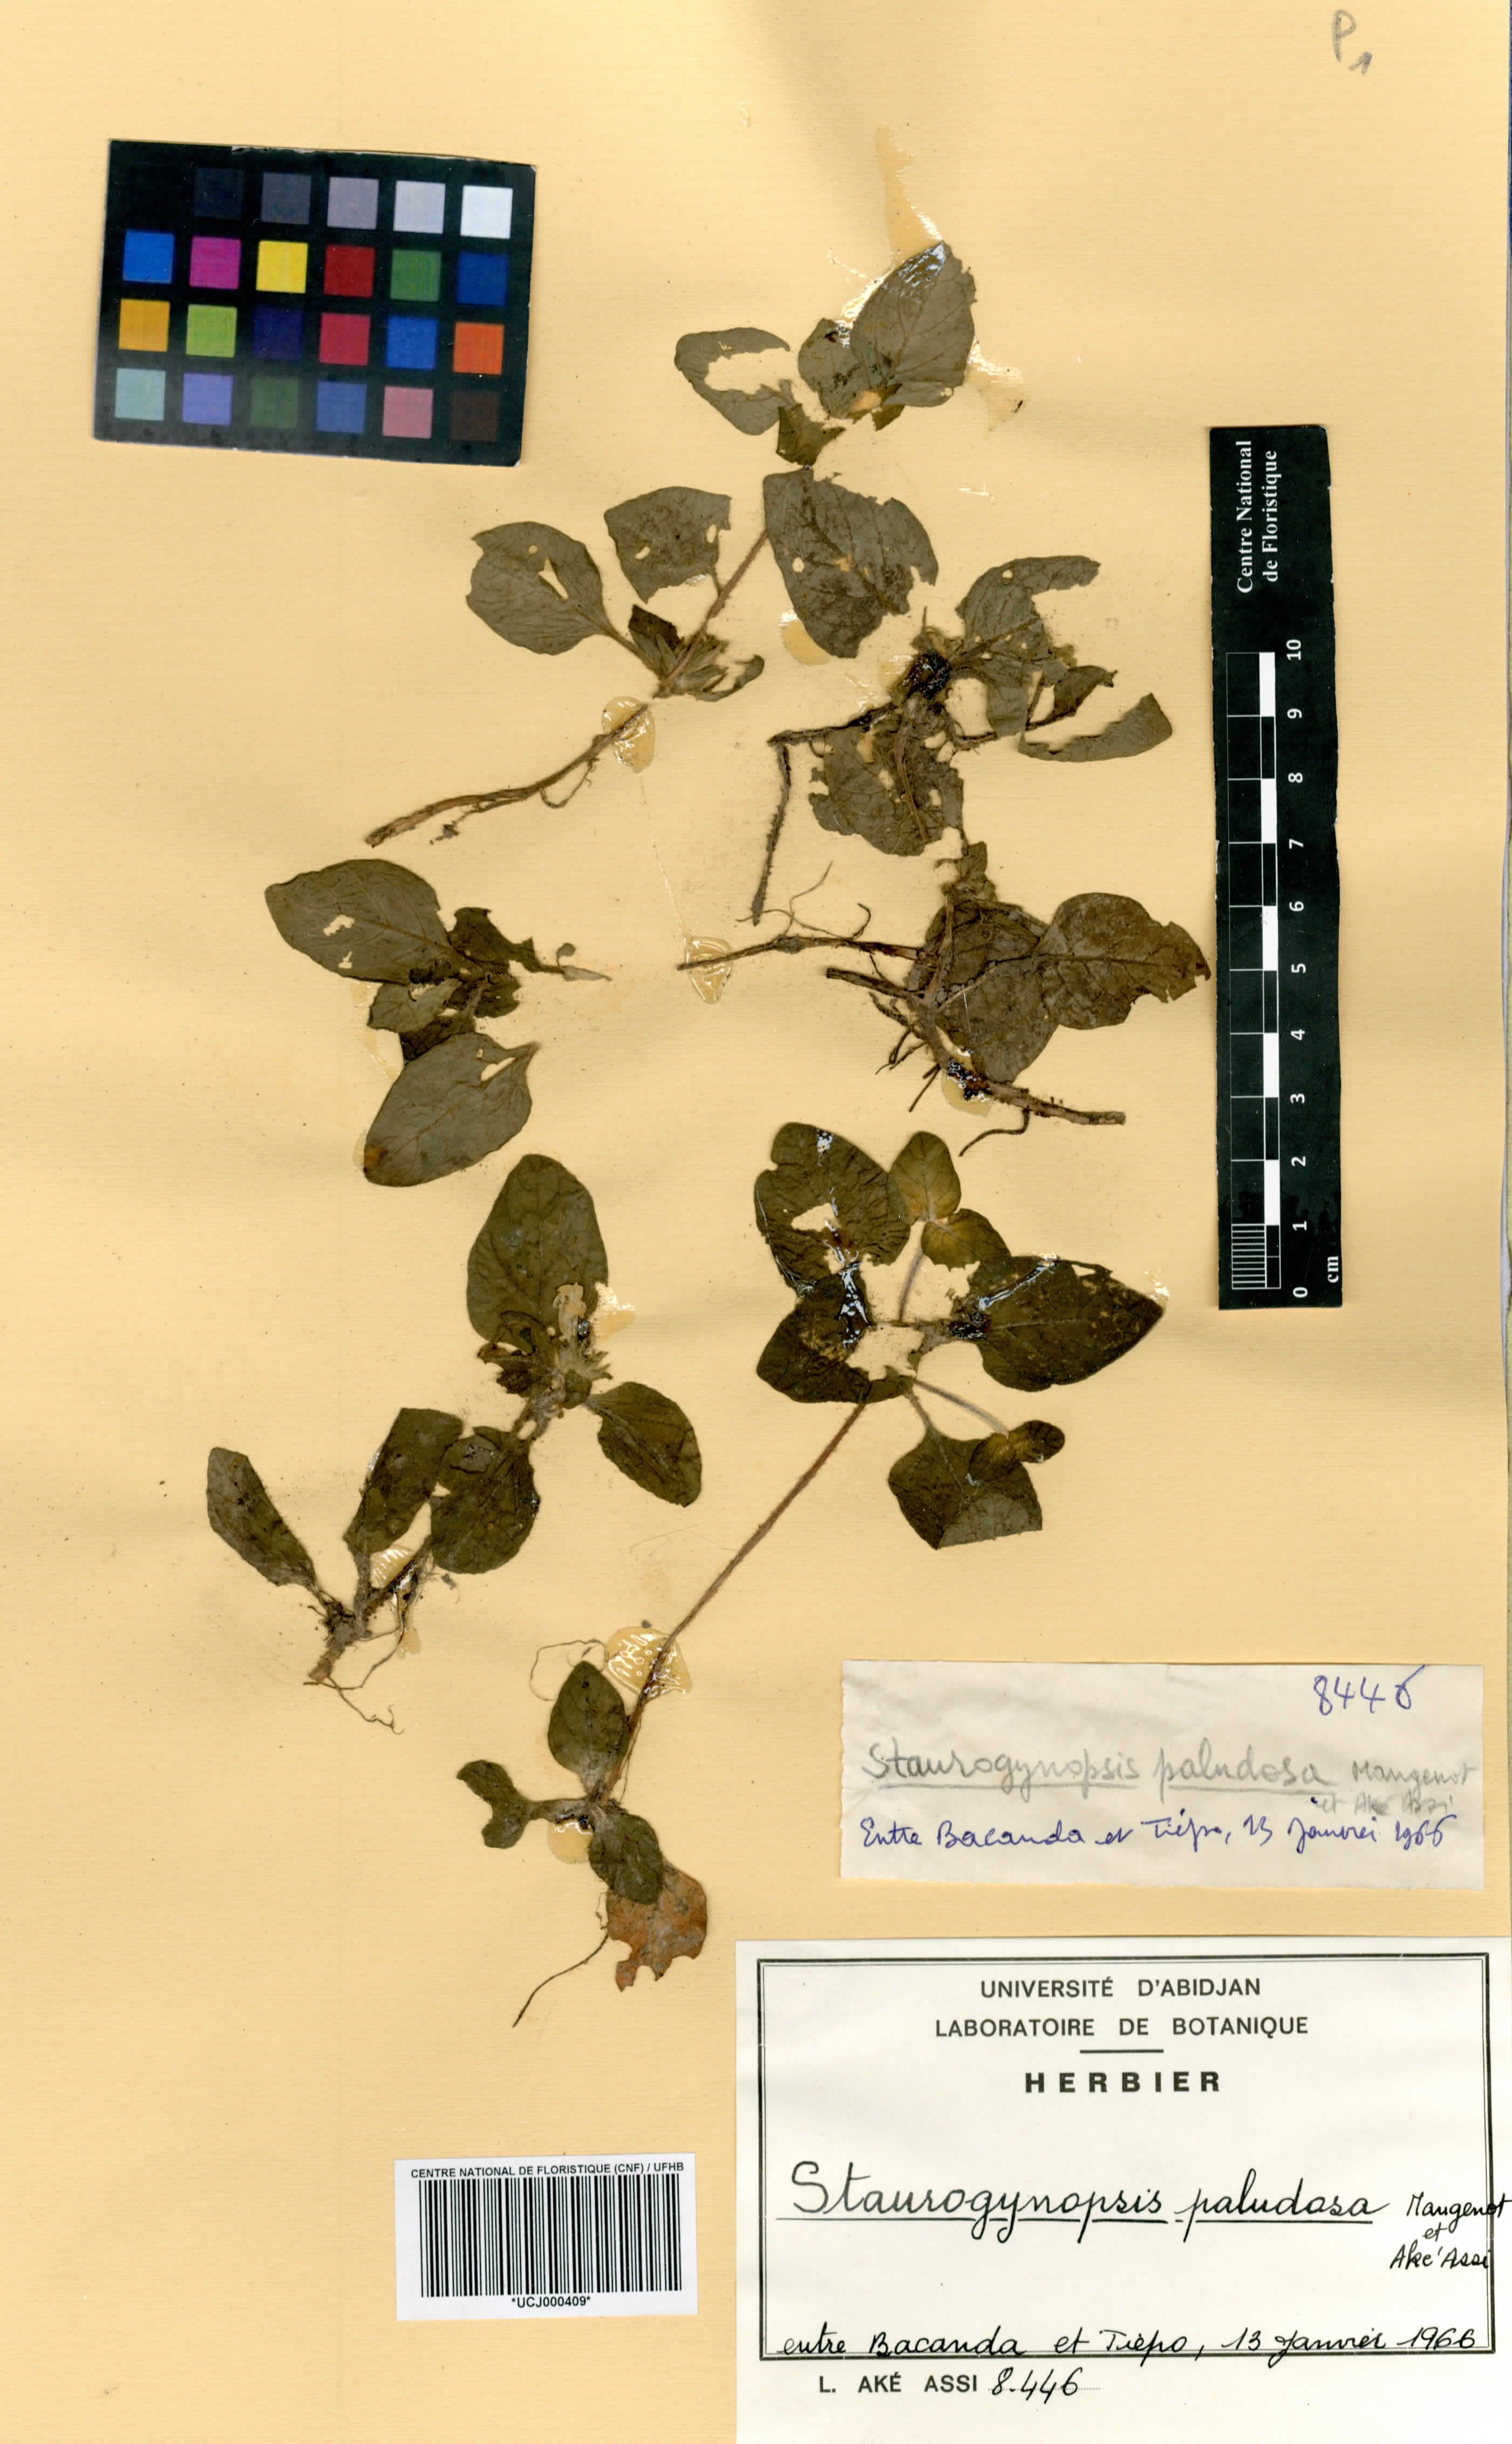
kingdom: Plantae
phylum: Tracheophyta
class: Magnoliopsida
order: Lamiales
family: Acanthaceae
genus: Staurogyne
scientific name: Staurogyne capitata
